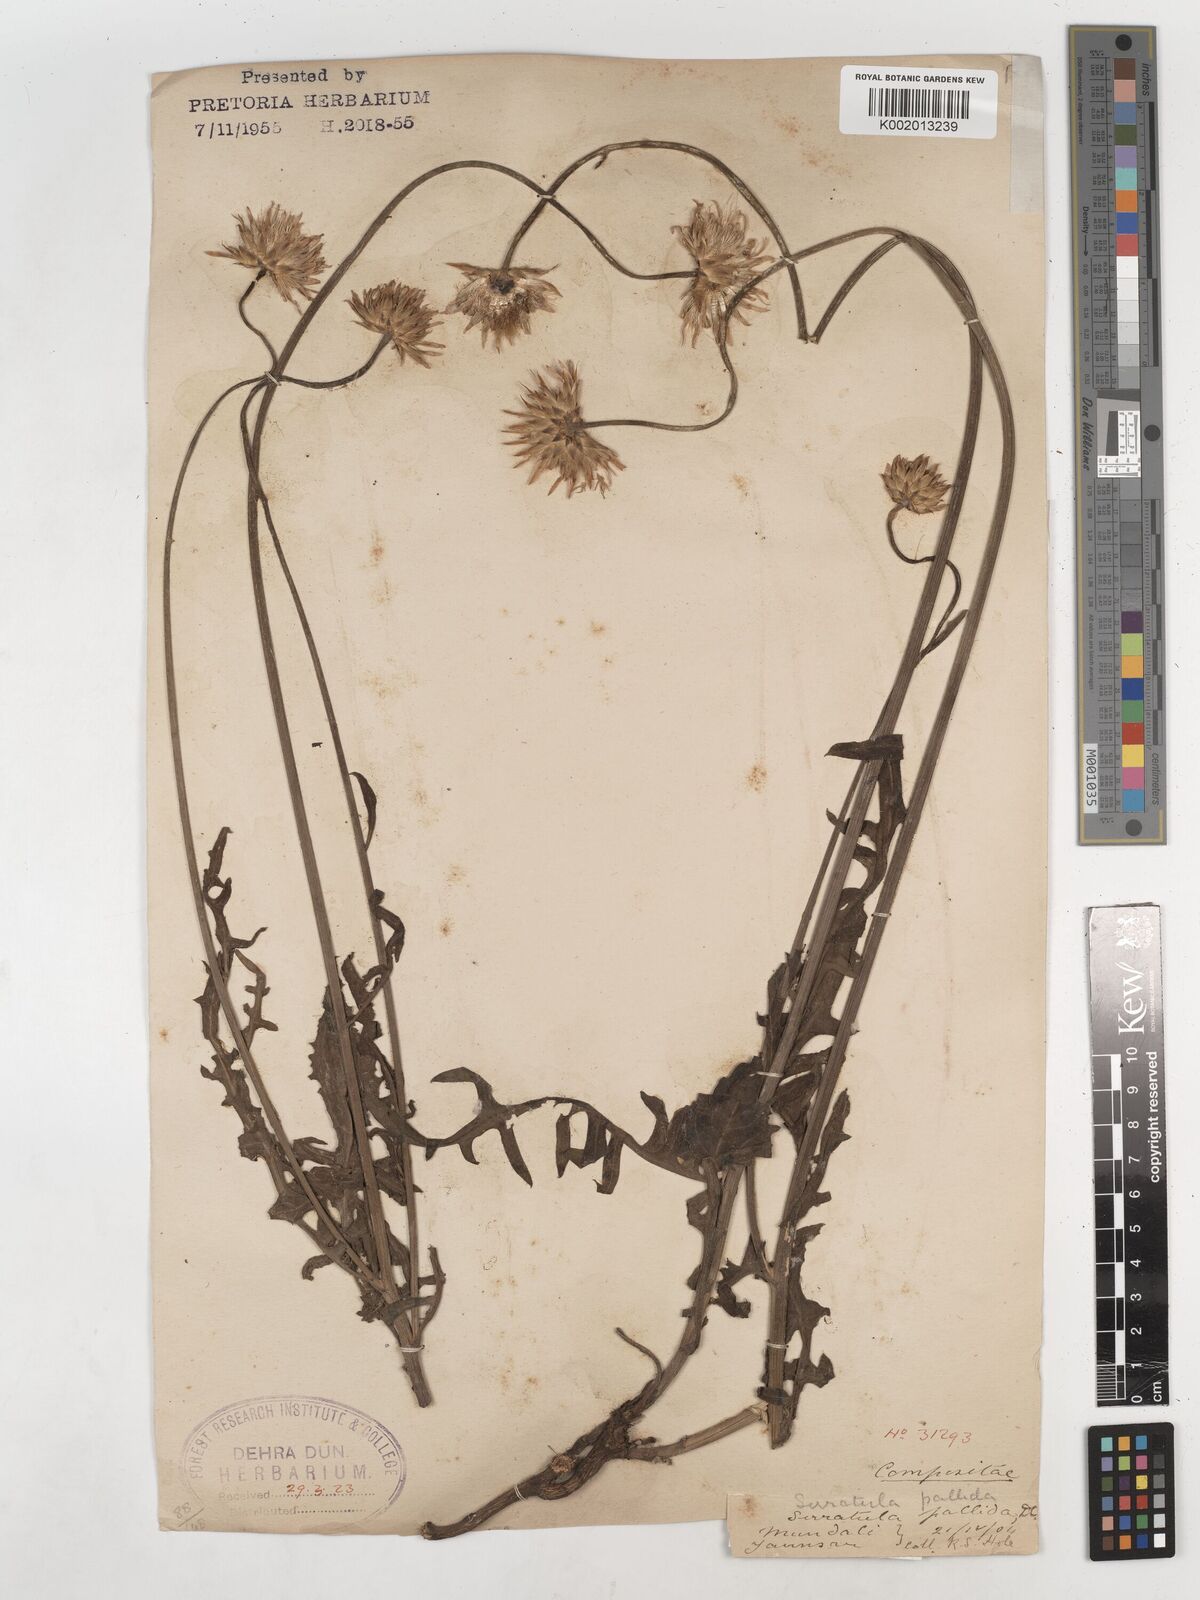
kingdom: Plantae
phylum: Tracheophyta
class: Magnoliopsida
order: Asterales
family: Asteraceae
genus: Klasea
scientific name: Klasea pallida
